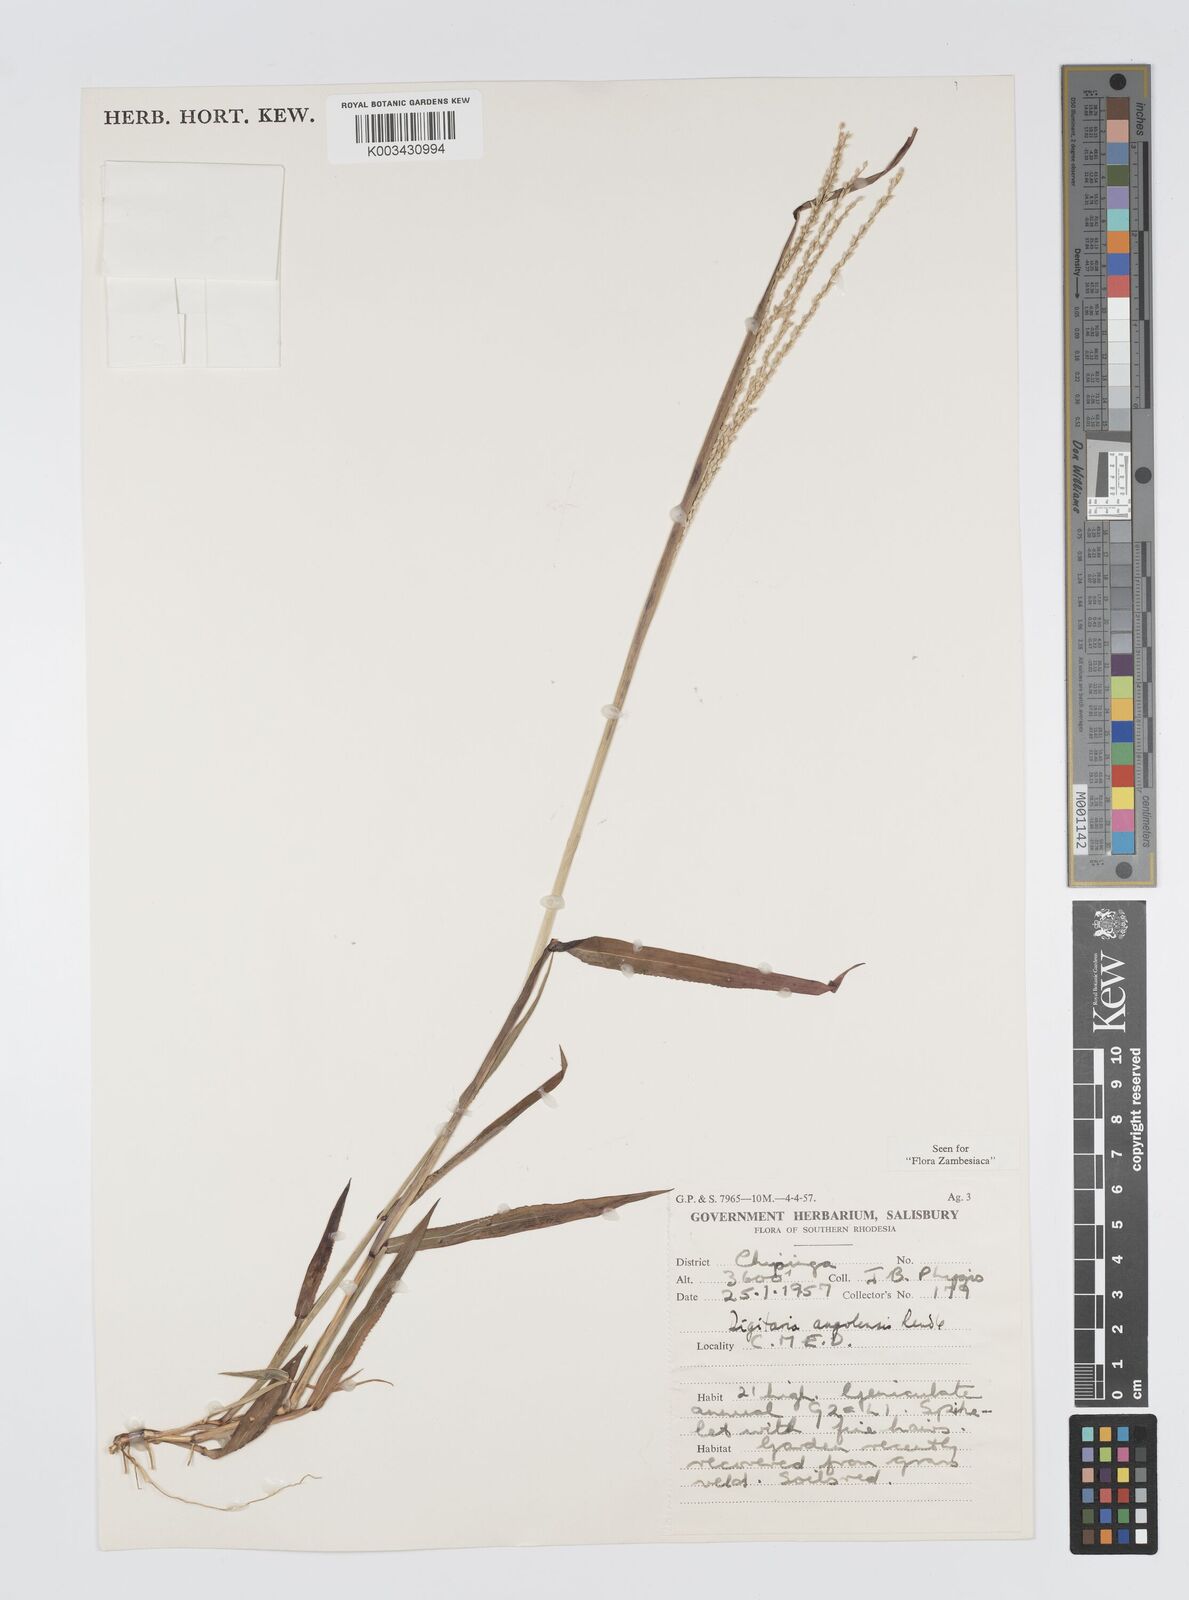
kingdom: Plantae
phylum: Tracheophyta
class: Liliopsida
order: Poales
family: Poaceae
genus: Digitaria
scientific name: Digitaria angolensis
